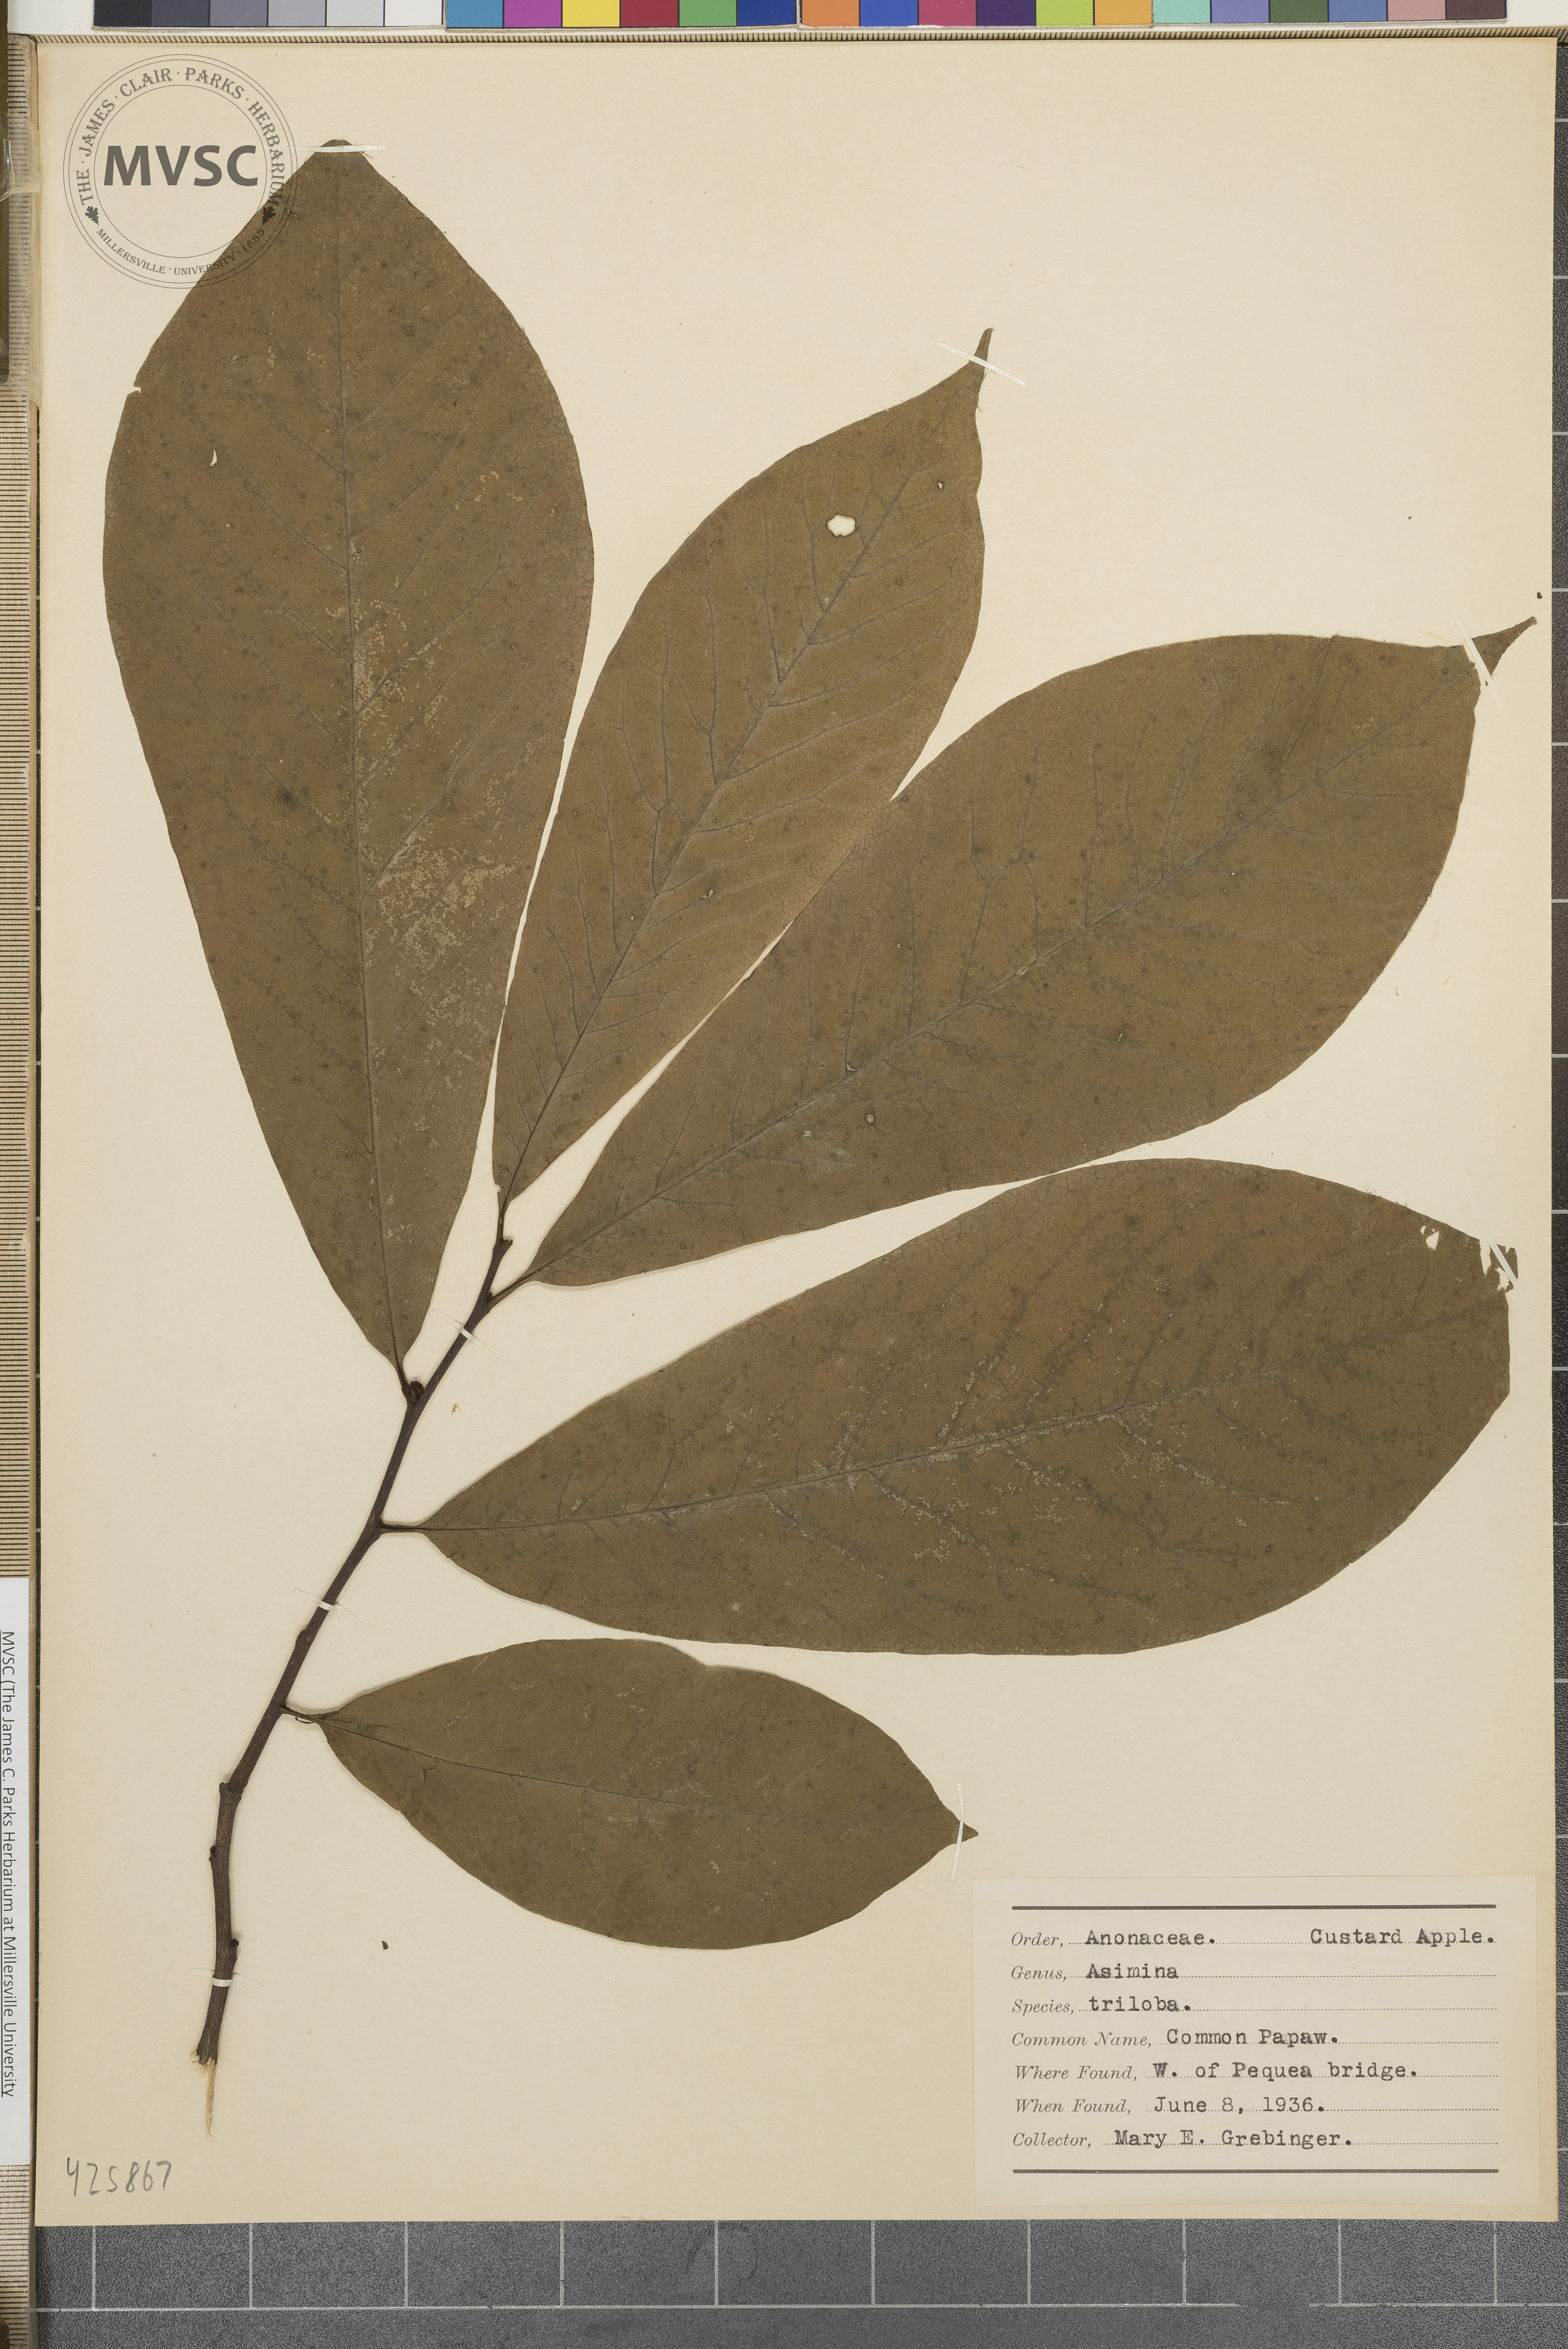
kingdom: Plantae
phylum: Tracheophyta
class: Magnoliopsida
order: Magnoliales
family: Annonaceae
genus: Asimina
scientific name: Asimina triloba
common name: Common Pawpaw
